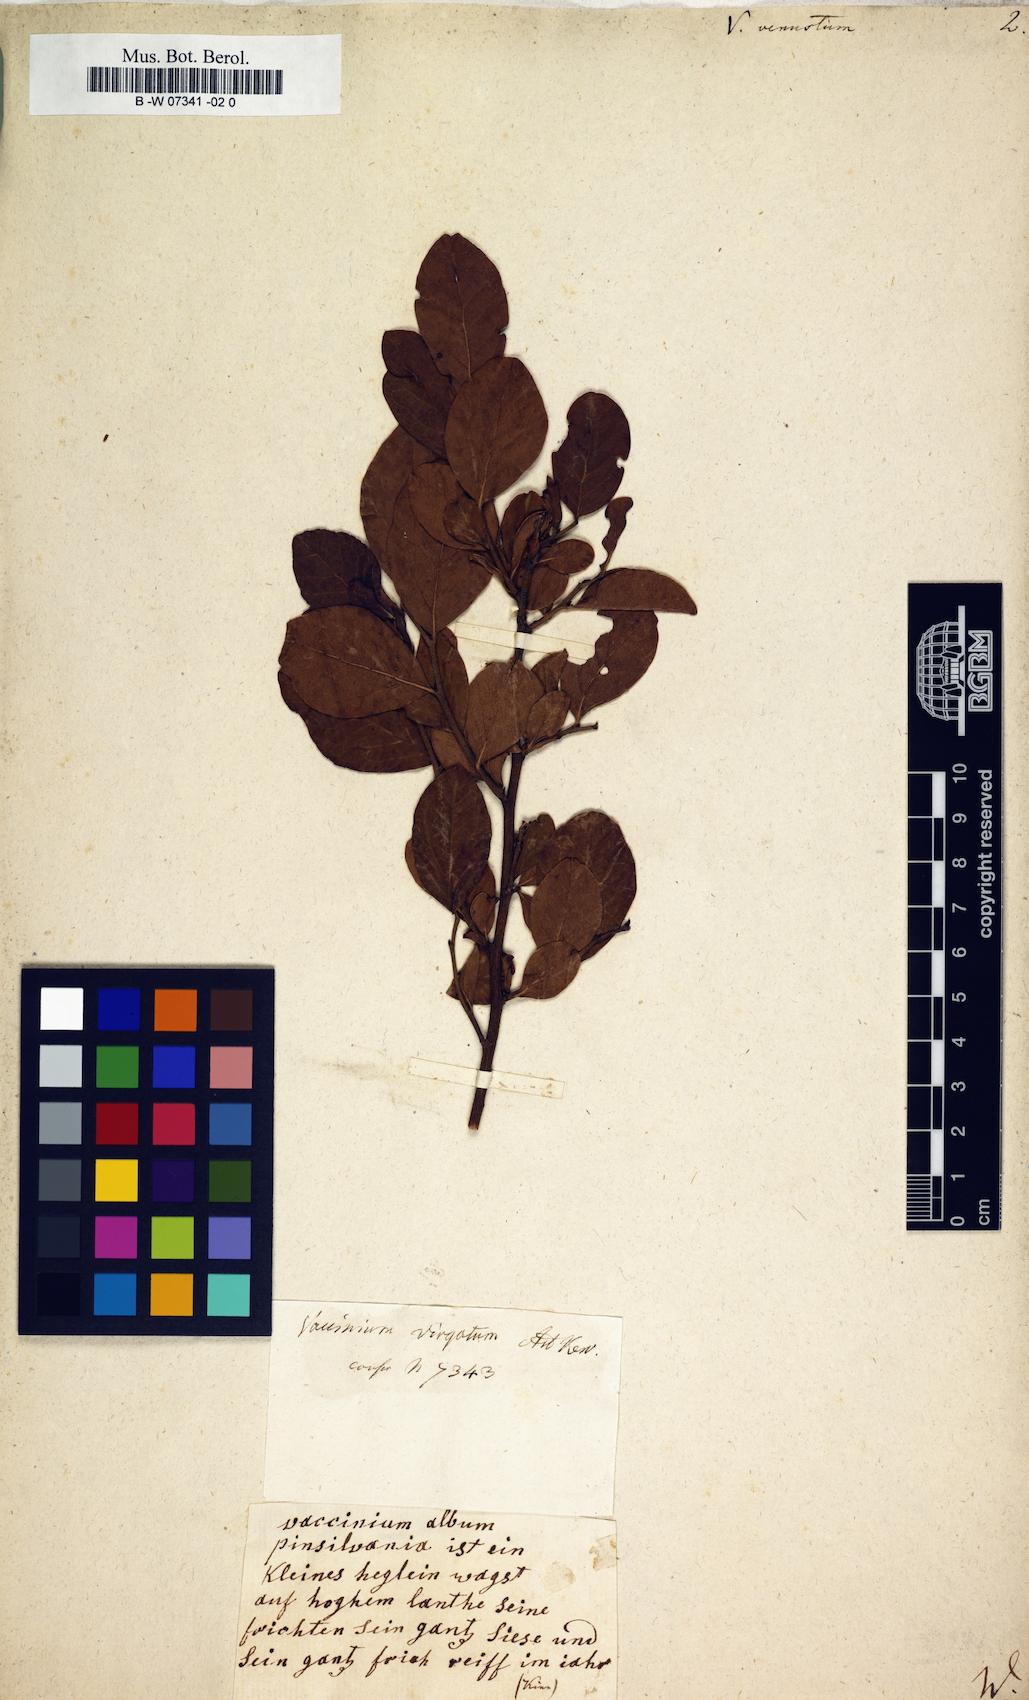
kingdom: Plantae
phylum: Tracheophyta
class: Magnoliopsida
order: Ericales
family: Ericaceae
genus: Gaylussacia
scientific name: Gaylussacia frondosa
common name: Dangleberry
